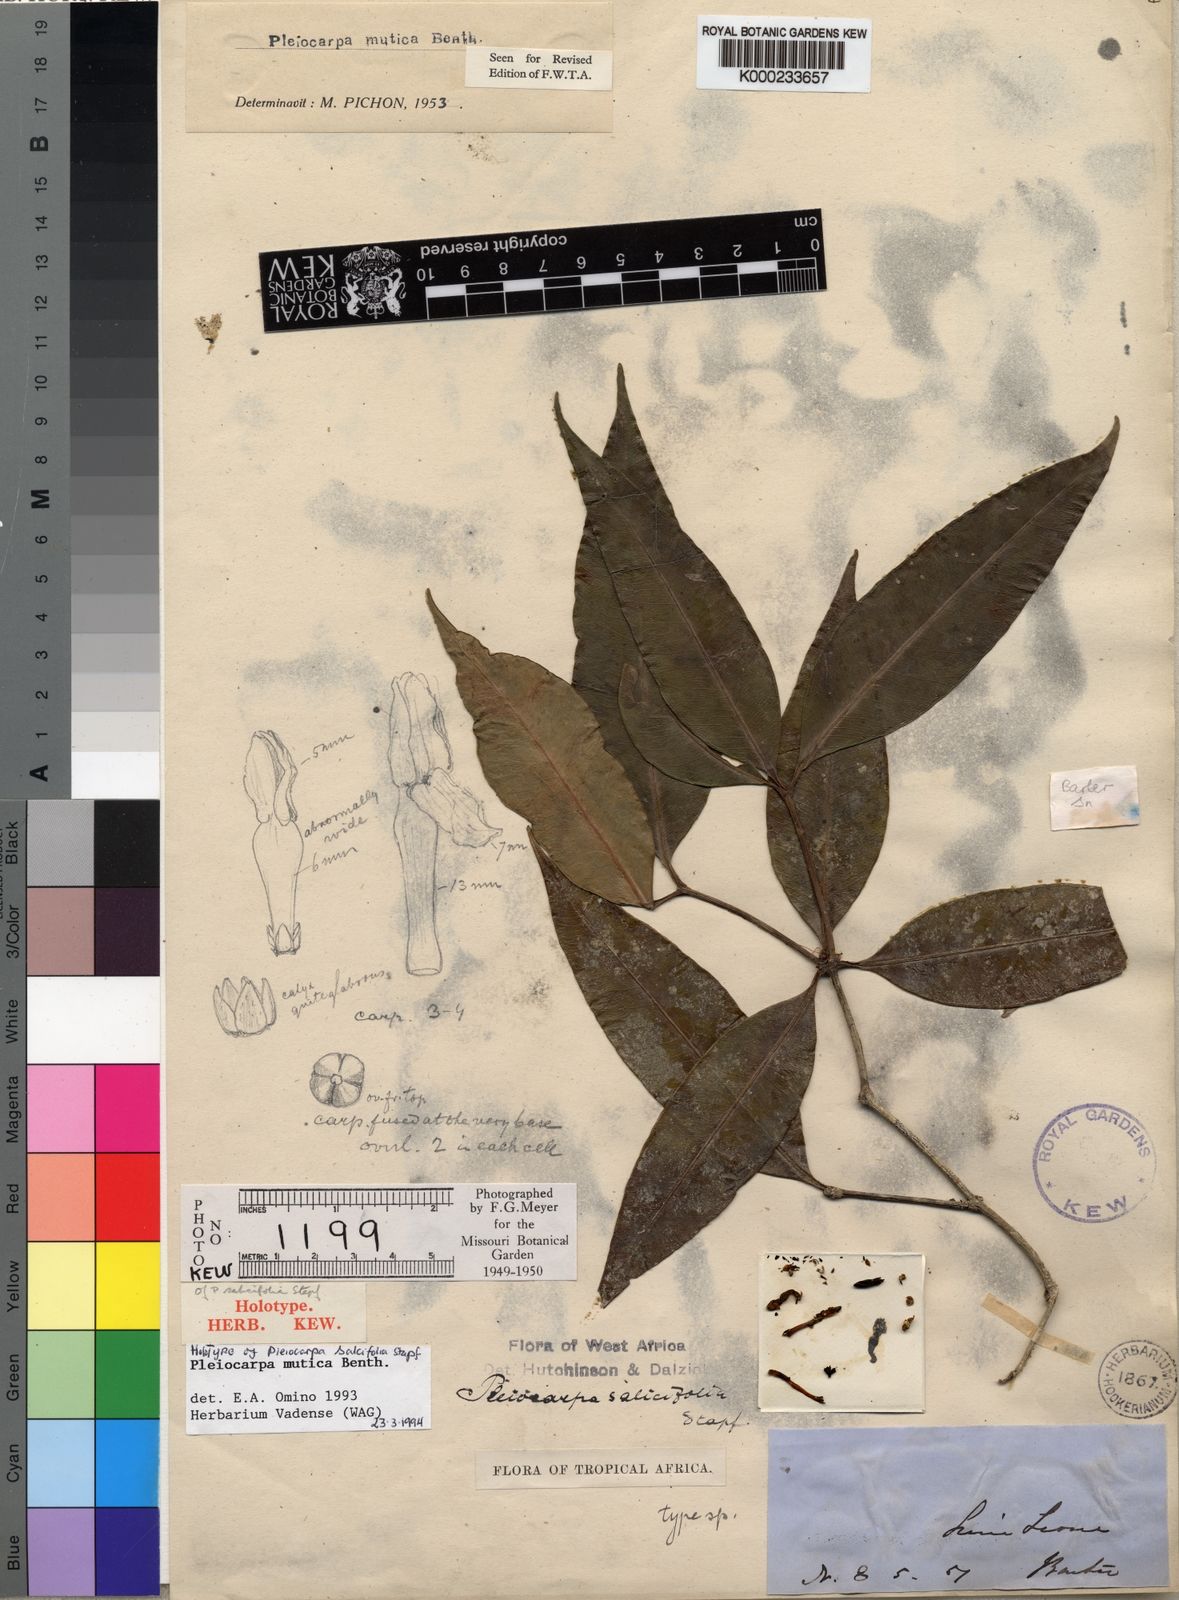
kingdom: Plantae
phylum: Tracheophyta
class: Magnoliopsida
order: Gentianales
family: Apocynaceae
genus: Pleiocarpa
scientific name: Pleiocarpa mutica
